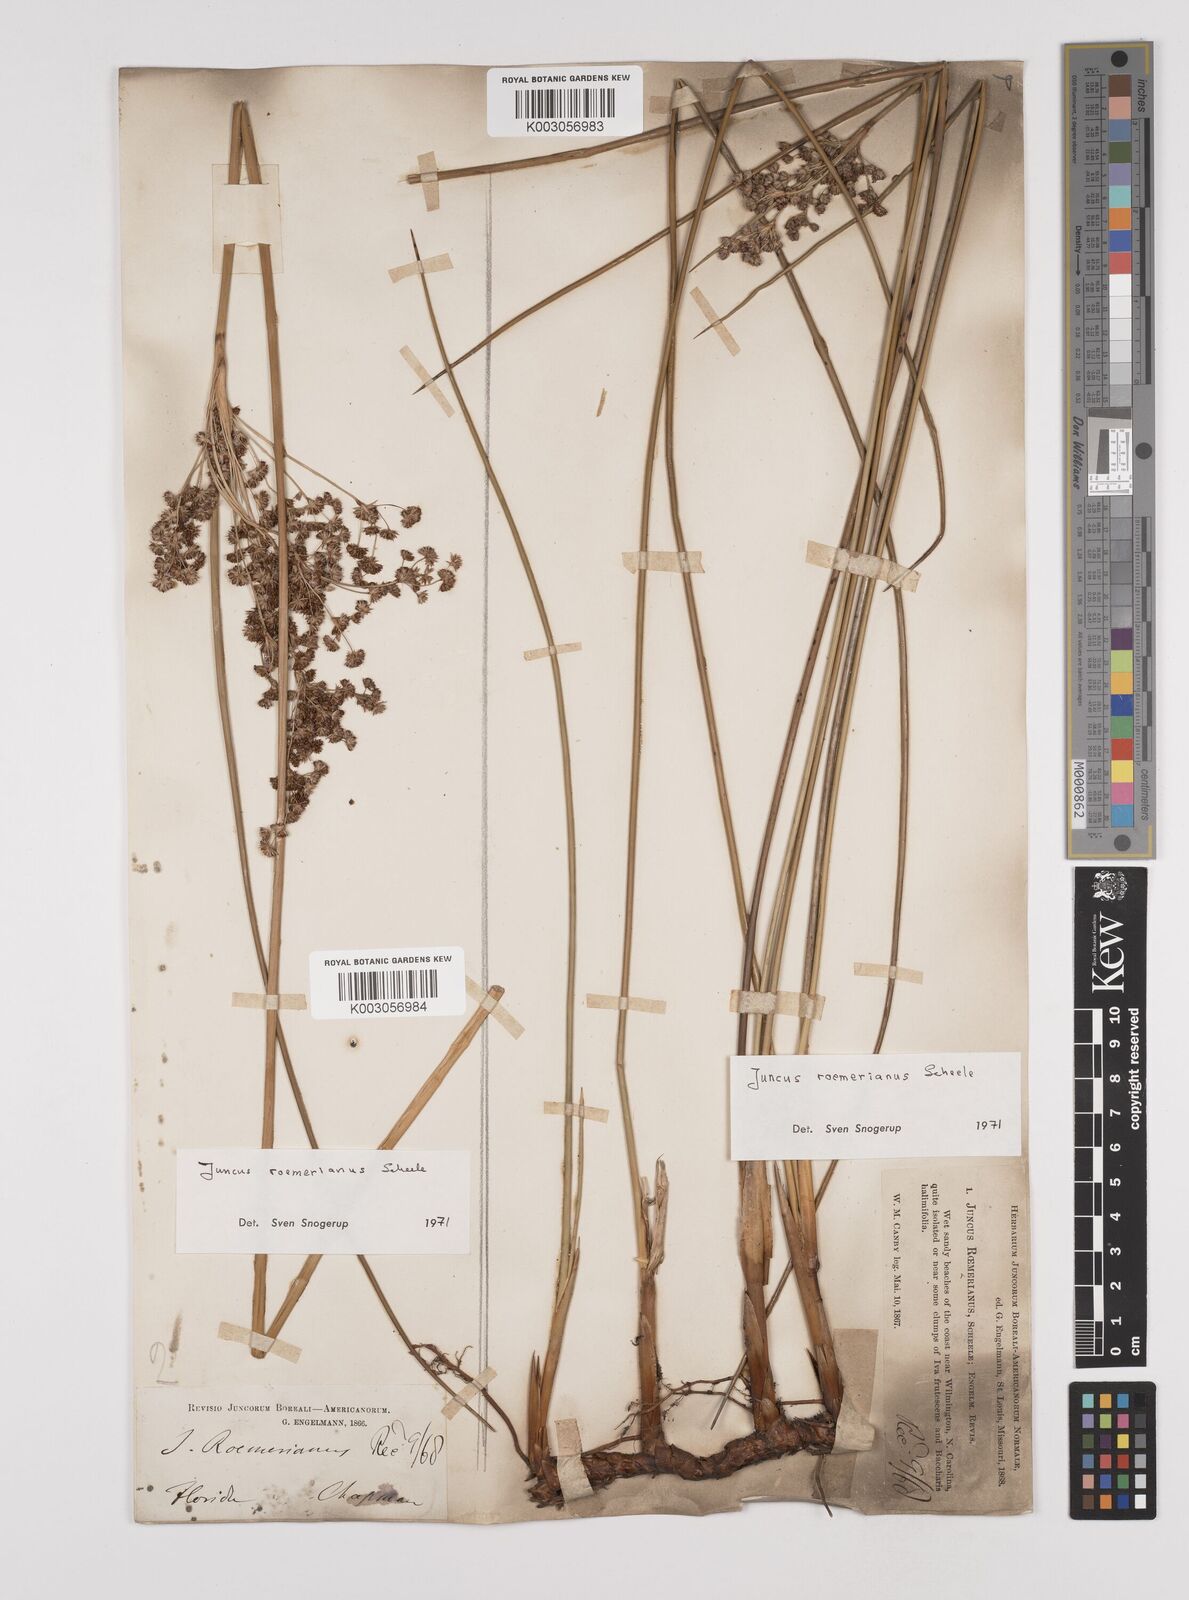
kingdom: Plantae
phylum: Tracheophyta
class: Liliopsida
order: Poales
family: Juncaceae
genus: Juncus
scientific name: Juncus roemerianus
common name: Roemer's rush
